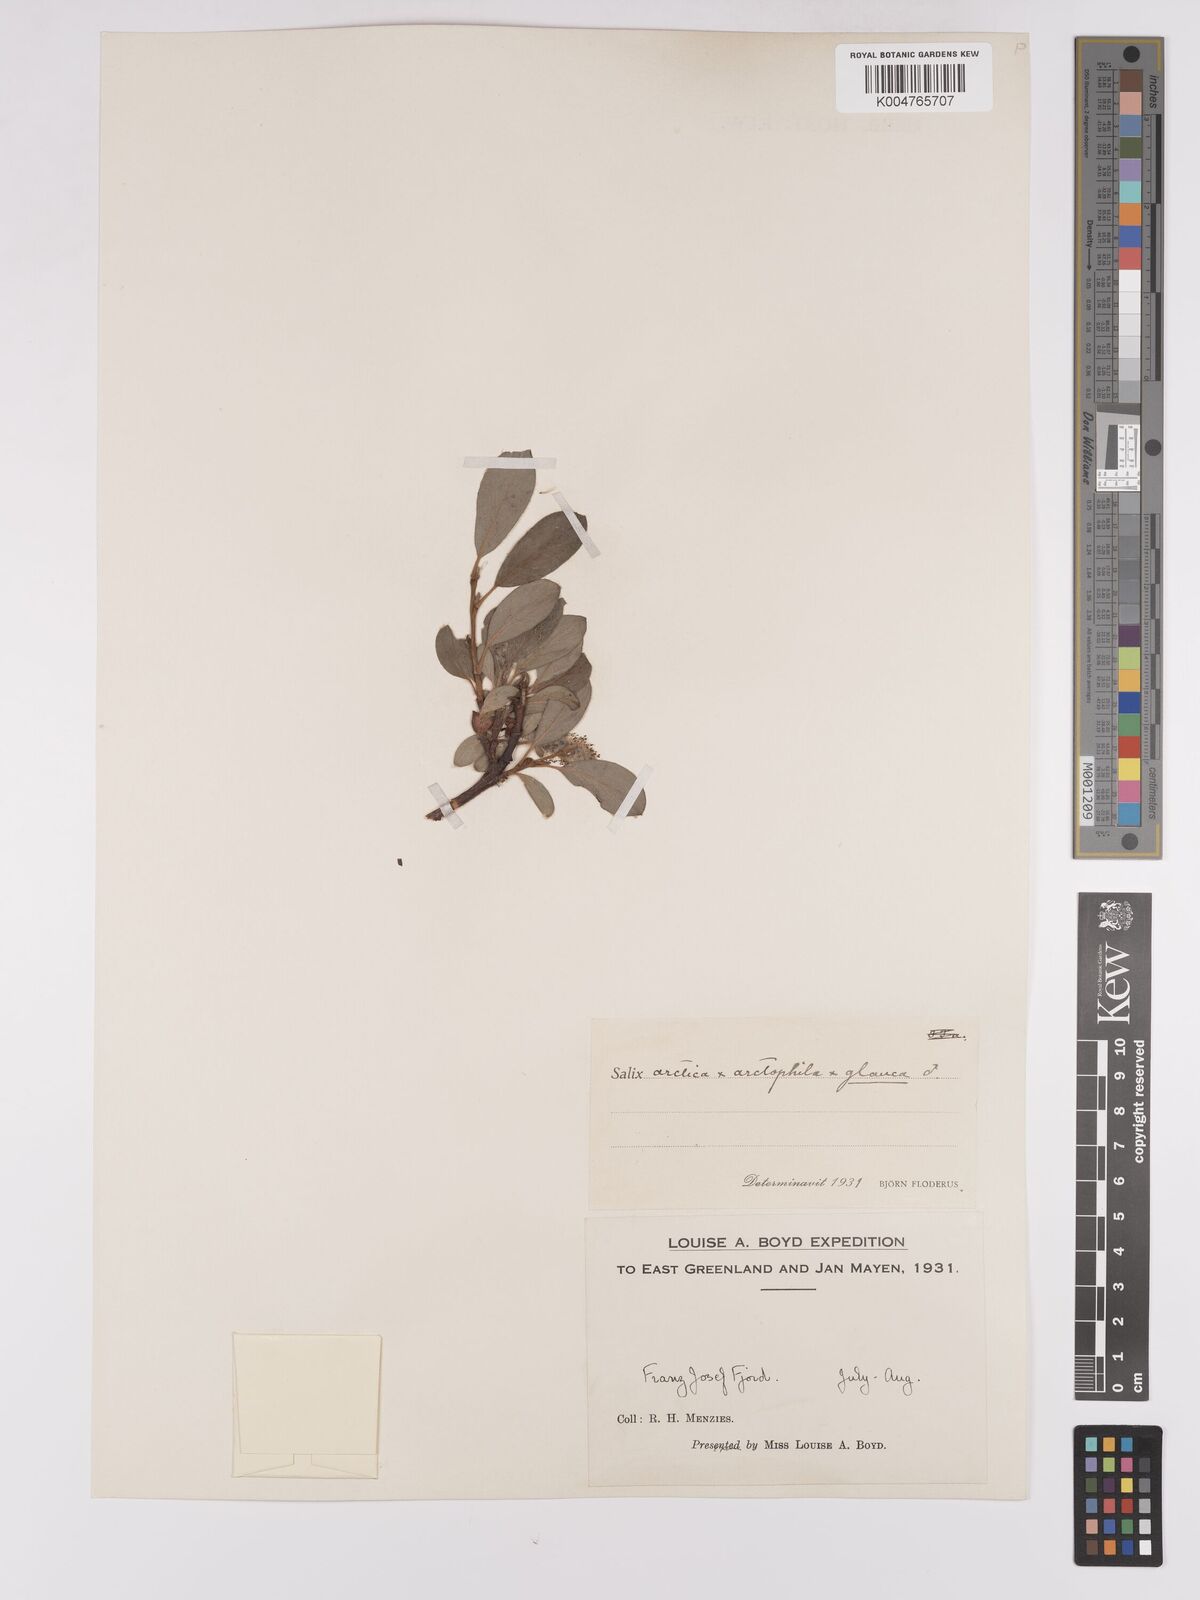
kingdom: Plantae
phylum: Tracheophyta
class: Magnoliopsida
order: Malpighiales
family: Salicaceae
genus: Salix
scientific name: Salix arctophila
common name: Greenland willow
